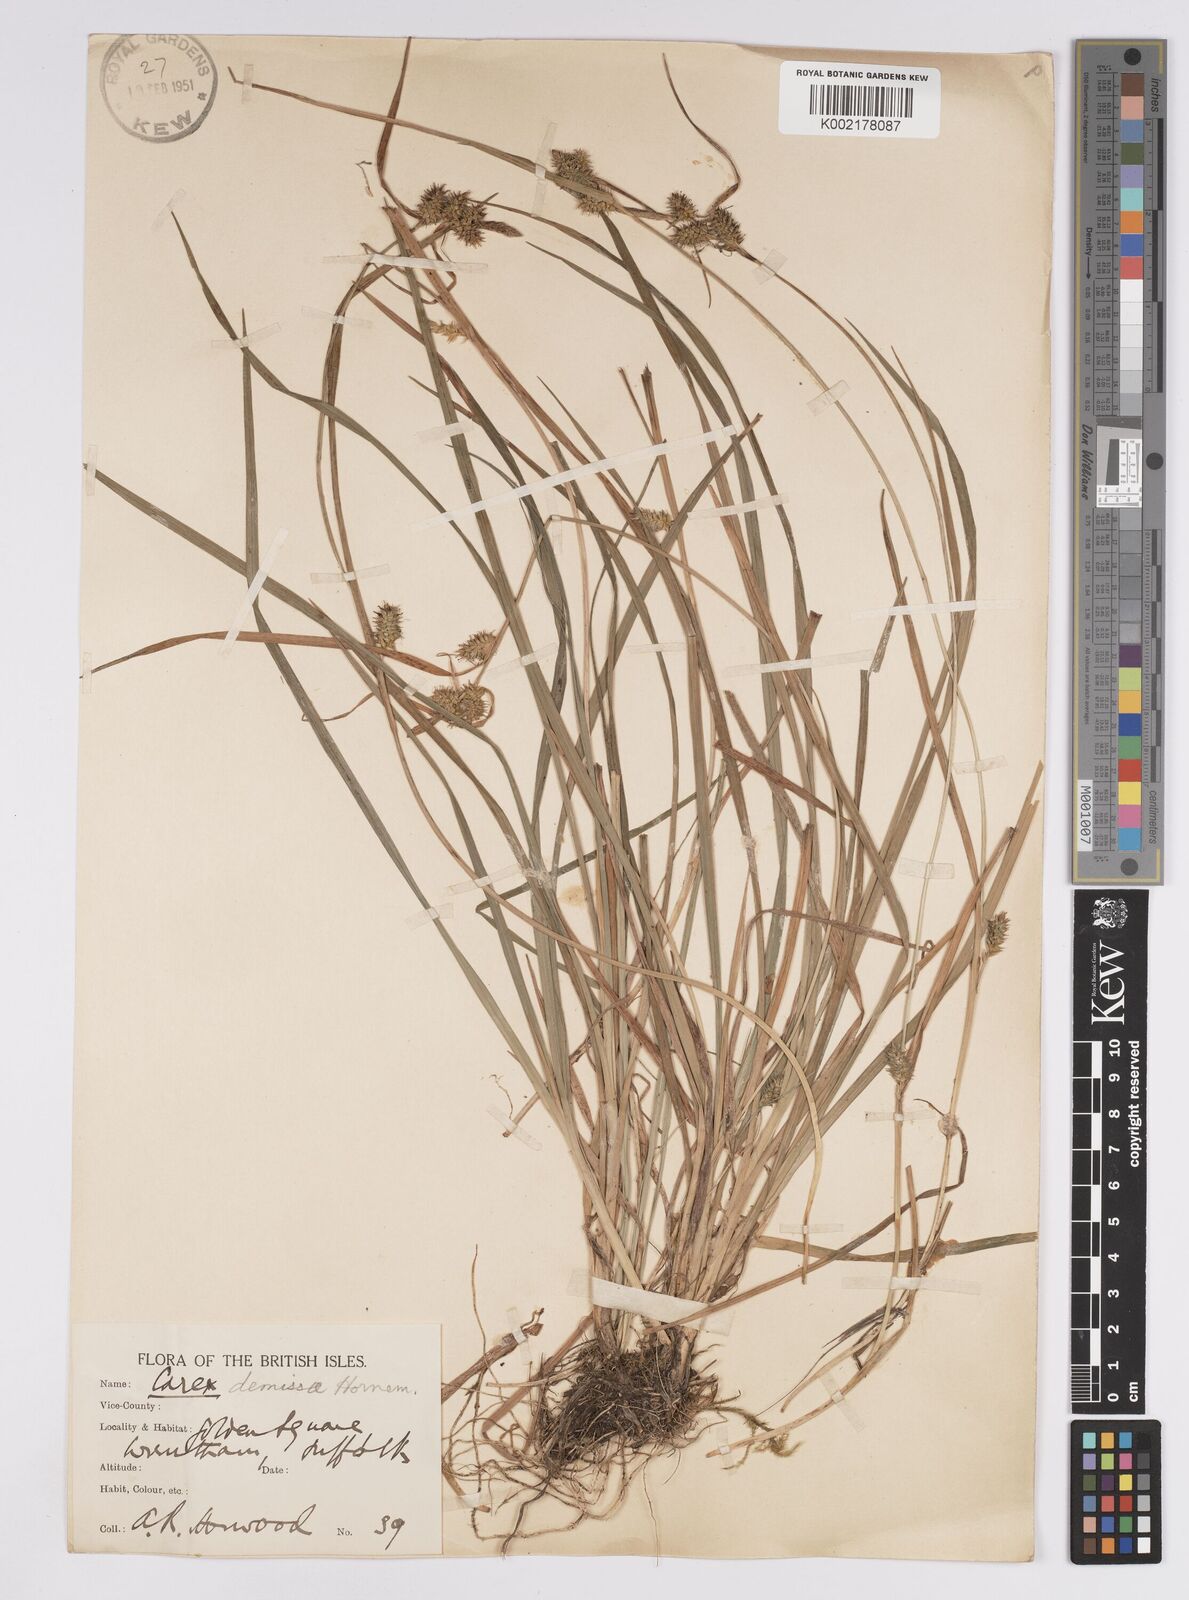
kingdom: Plantae
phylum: Tracheophyta
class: Liliopsida
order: Poales
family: Cyperaceae
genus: Carex
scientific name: Carex demissa
